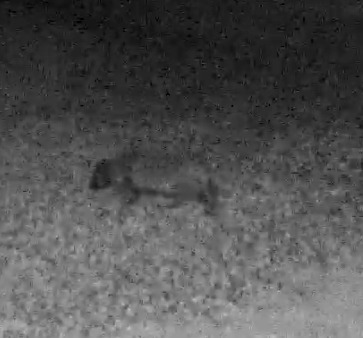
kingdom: Animalia
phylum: Chordata
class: Mammalia
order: Carnivora
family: Canidae
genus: Nyctereutes
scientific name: Nyctereutes procyonoides
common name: Mårhund
